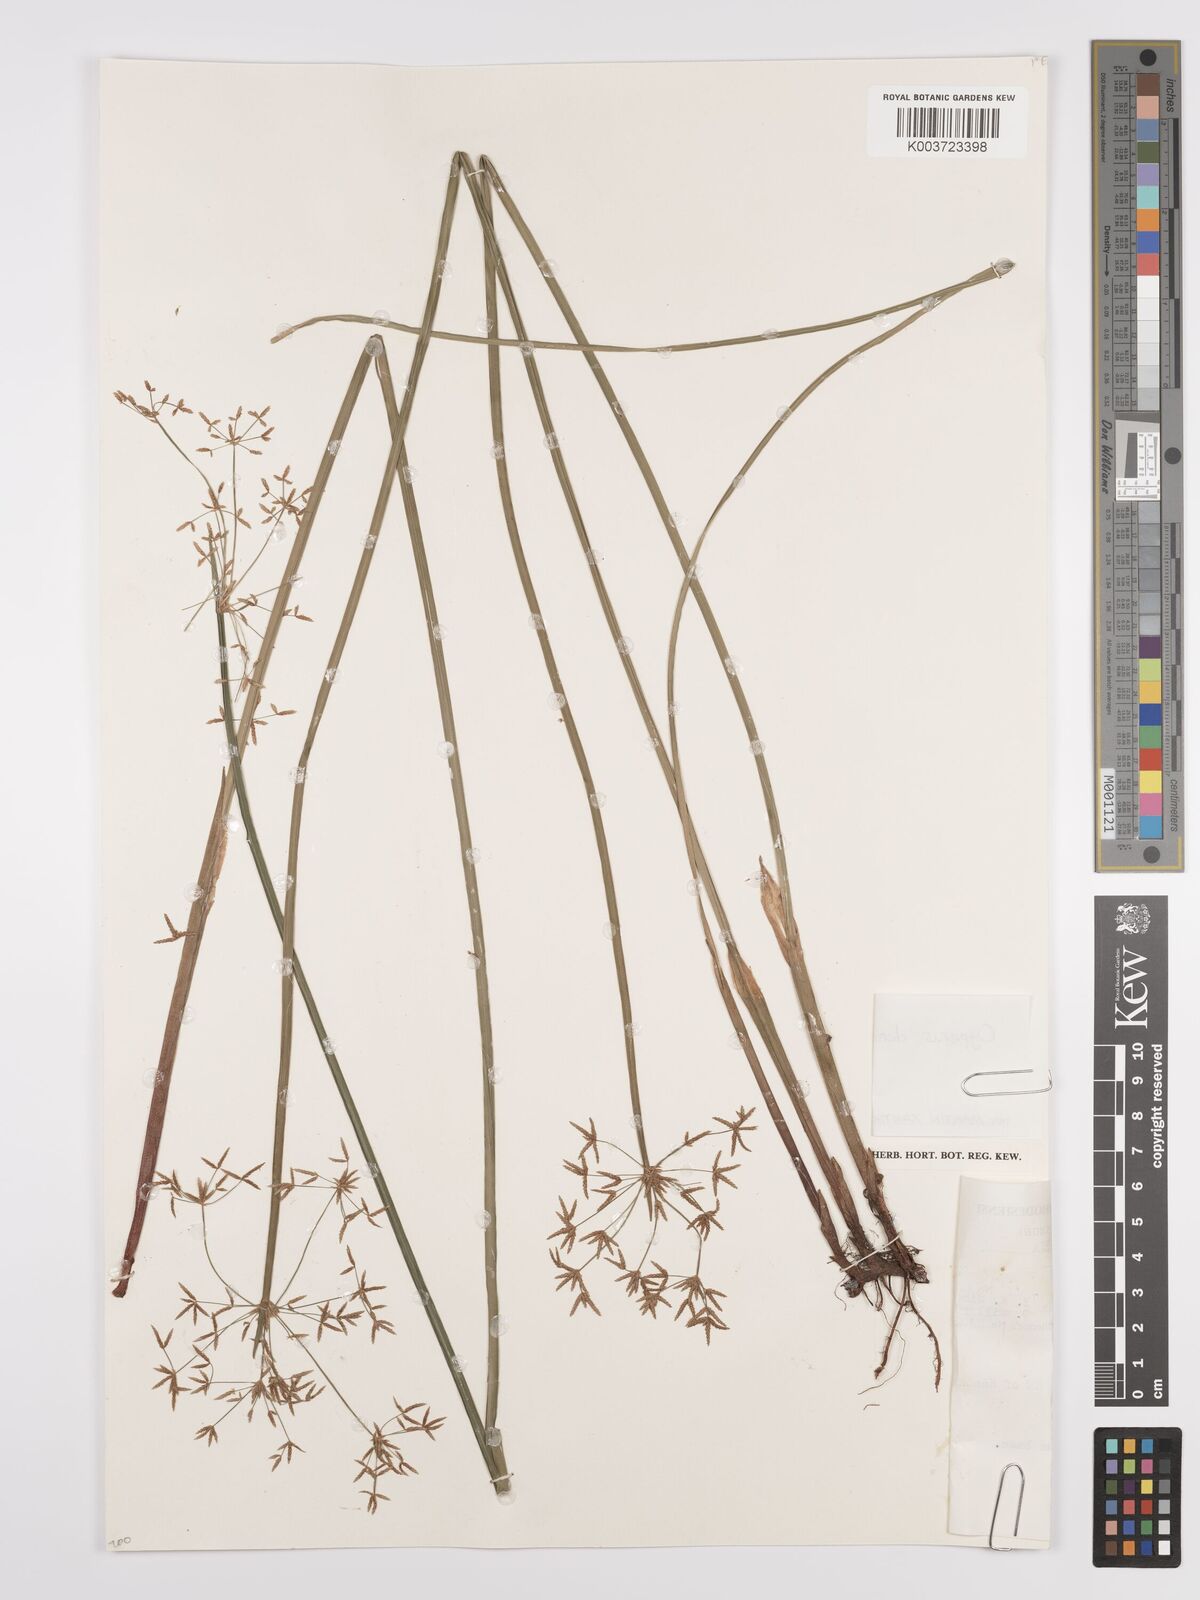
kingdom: Plantae
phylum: Tracheophyta
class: Liliopsida
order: Poales
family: Cyperaceae
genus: Cyperus
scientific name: Cyperus denudatus
